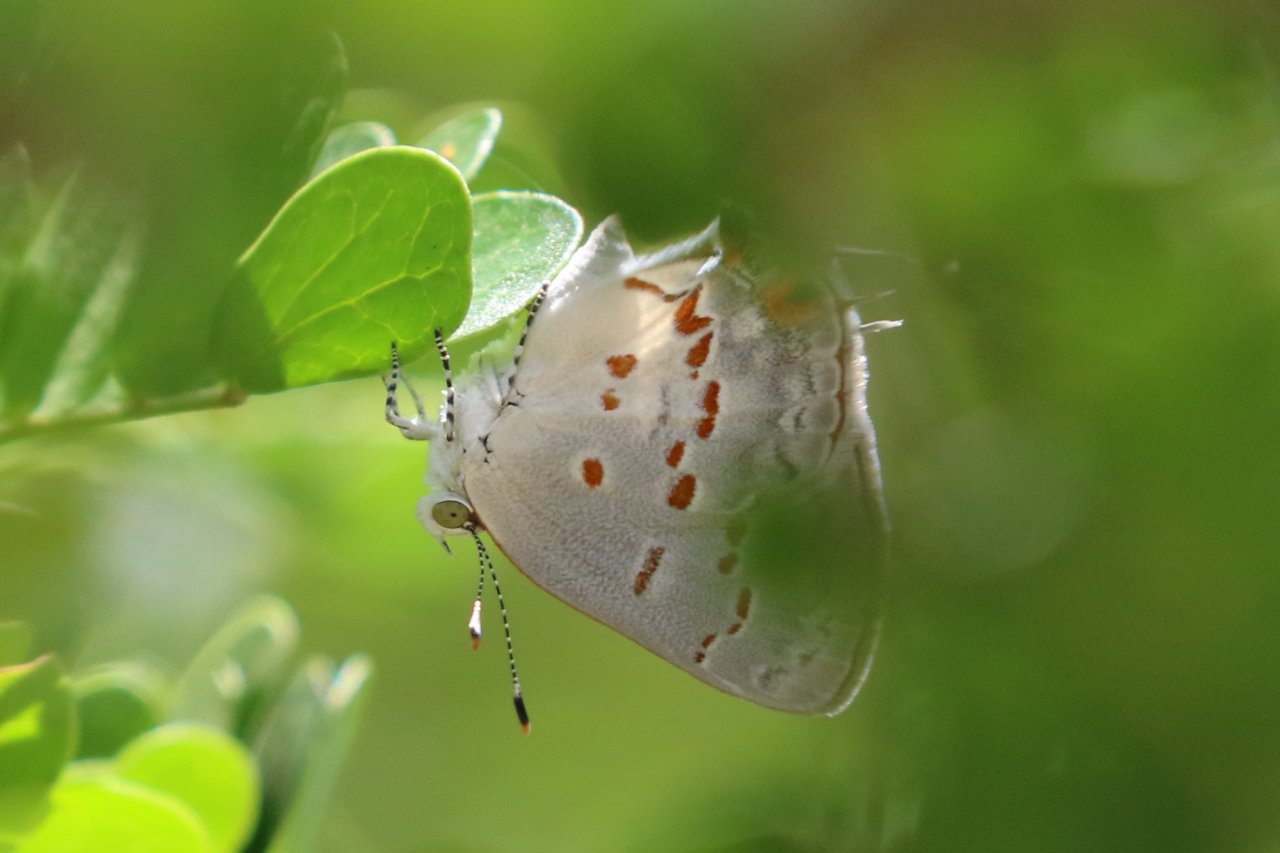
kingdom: Animalia
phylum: Arthropoda
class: Insecta
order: Lepidoptera
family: Lycaenidae
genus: Ministrymon
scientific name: Ministrymon clytie
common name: Clytie Ministreak
